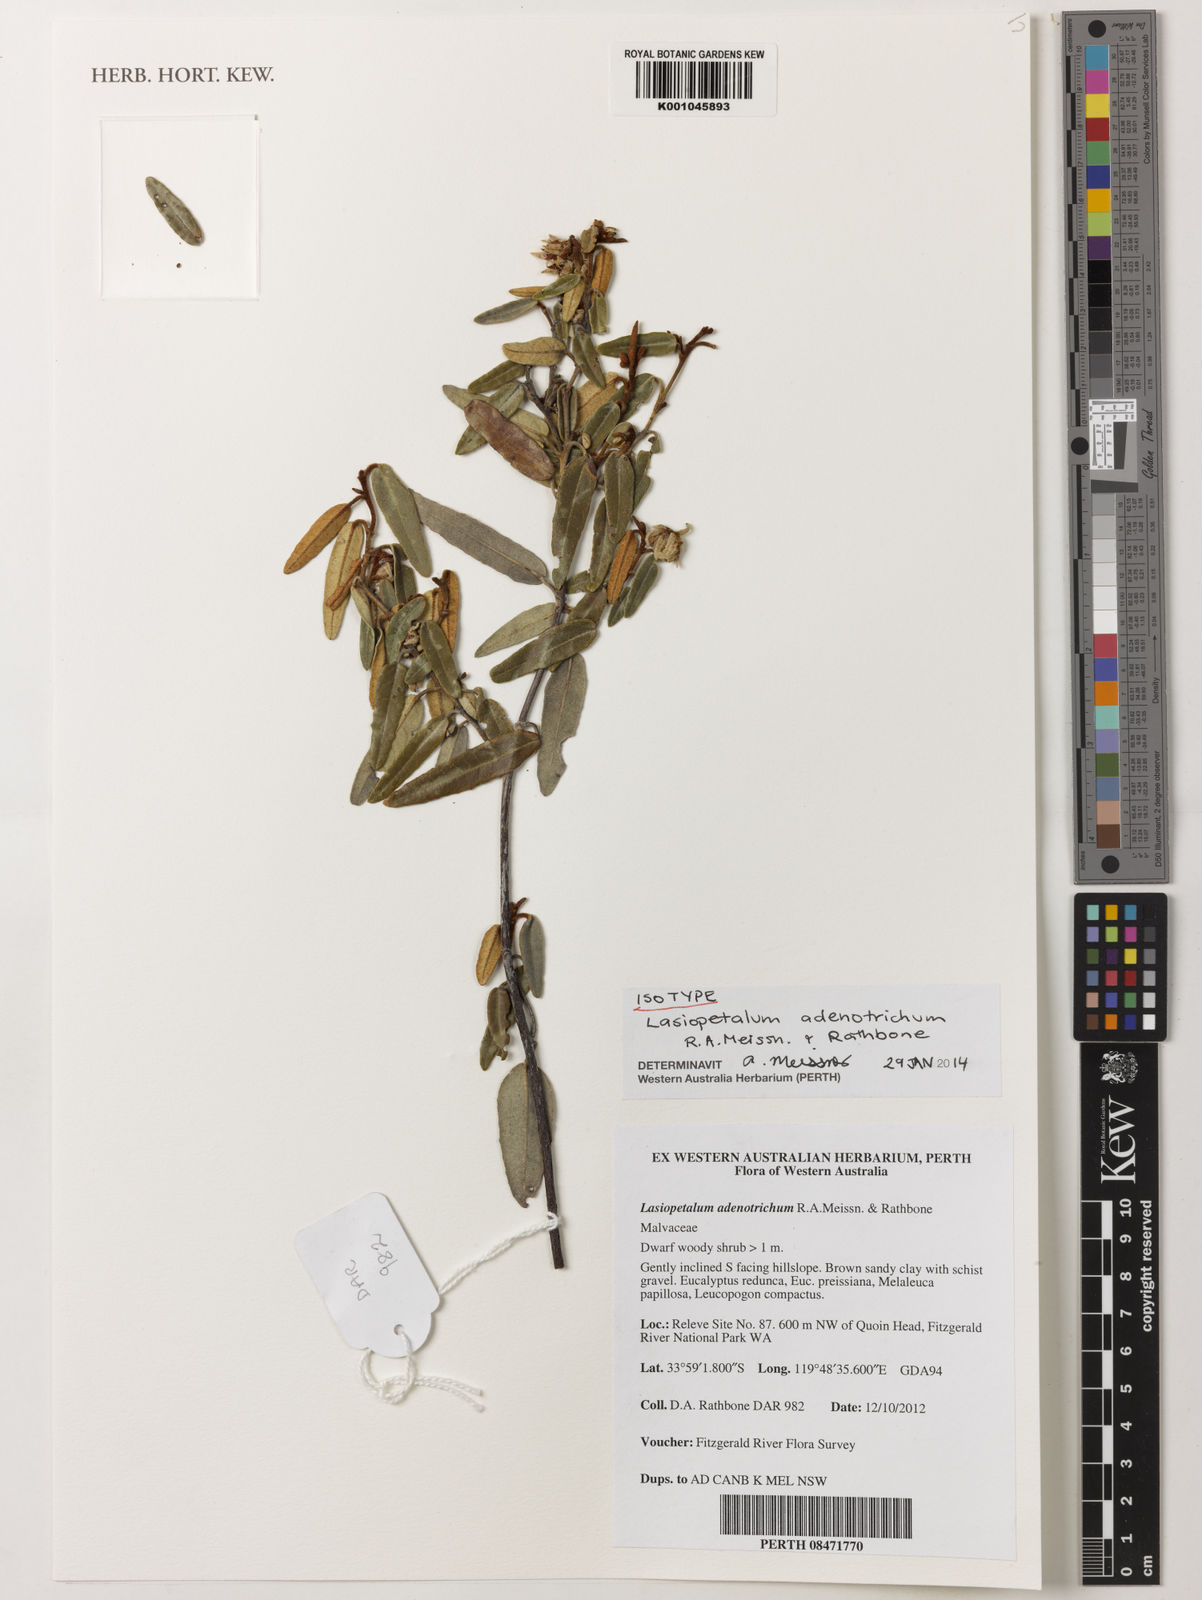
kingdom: Plantae
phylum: Tracheophyta
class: Magnoliopsida
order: Malvales
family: Malvaceae
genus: Lasiopetalum
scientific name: Lasiopetalum adenotrichum
